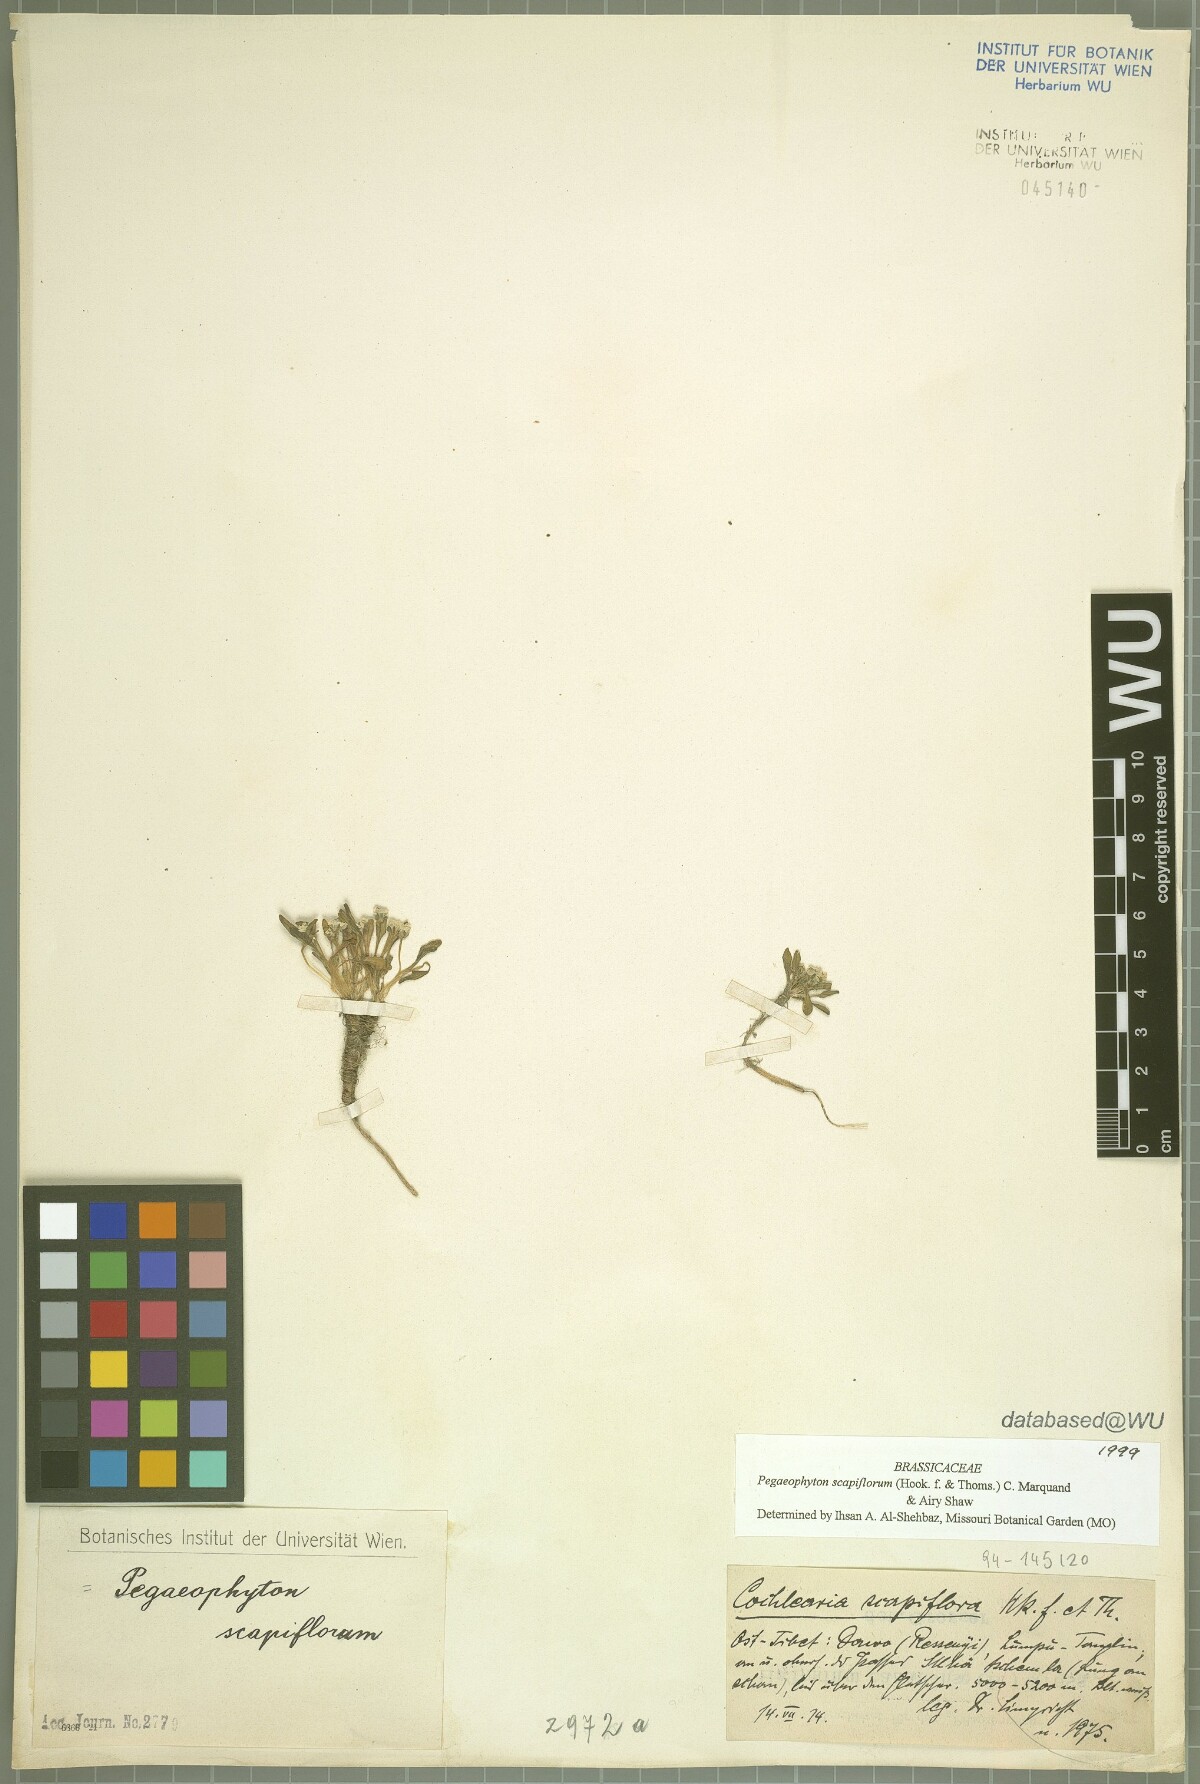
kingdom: Plantae
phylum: Tracheophyta
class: Magnoliopsida
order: Brassicales
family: Brassicaceae
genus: Eutrema
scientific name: Eutrema scapiflorum
